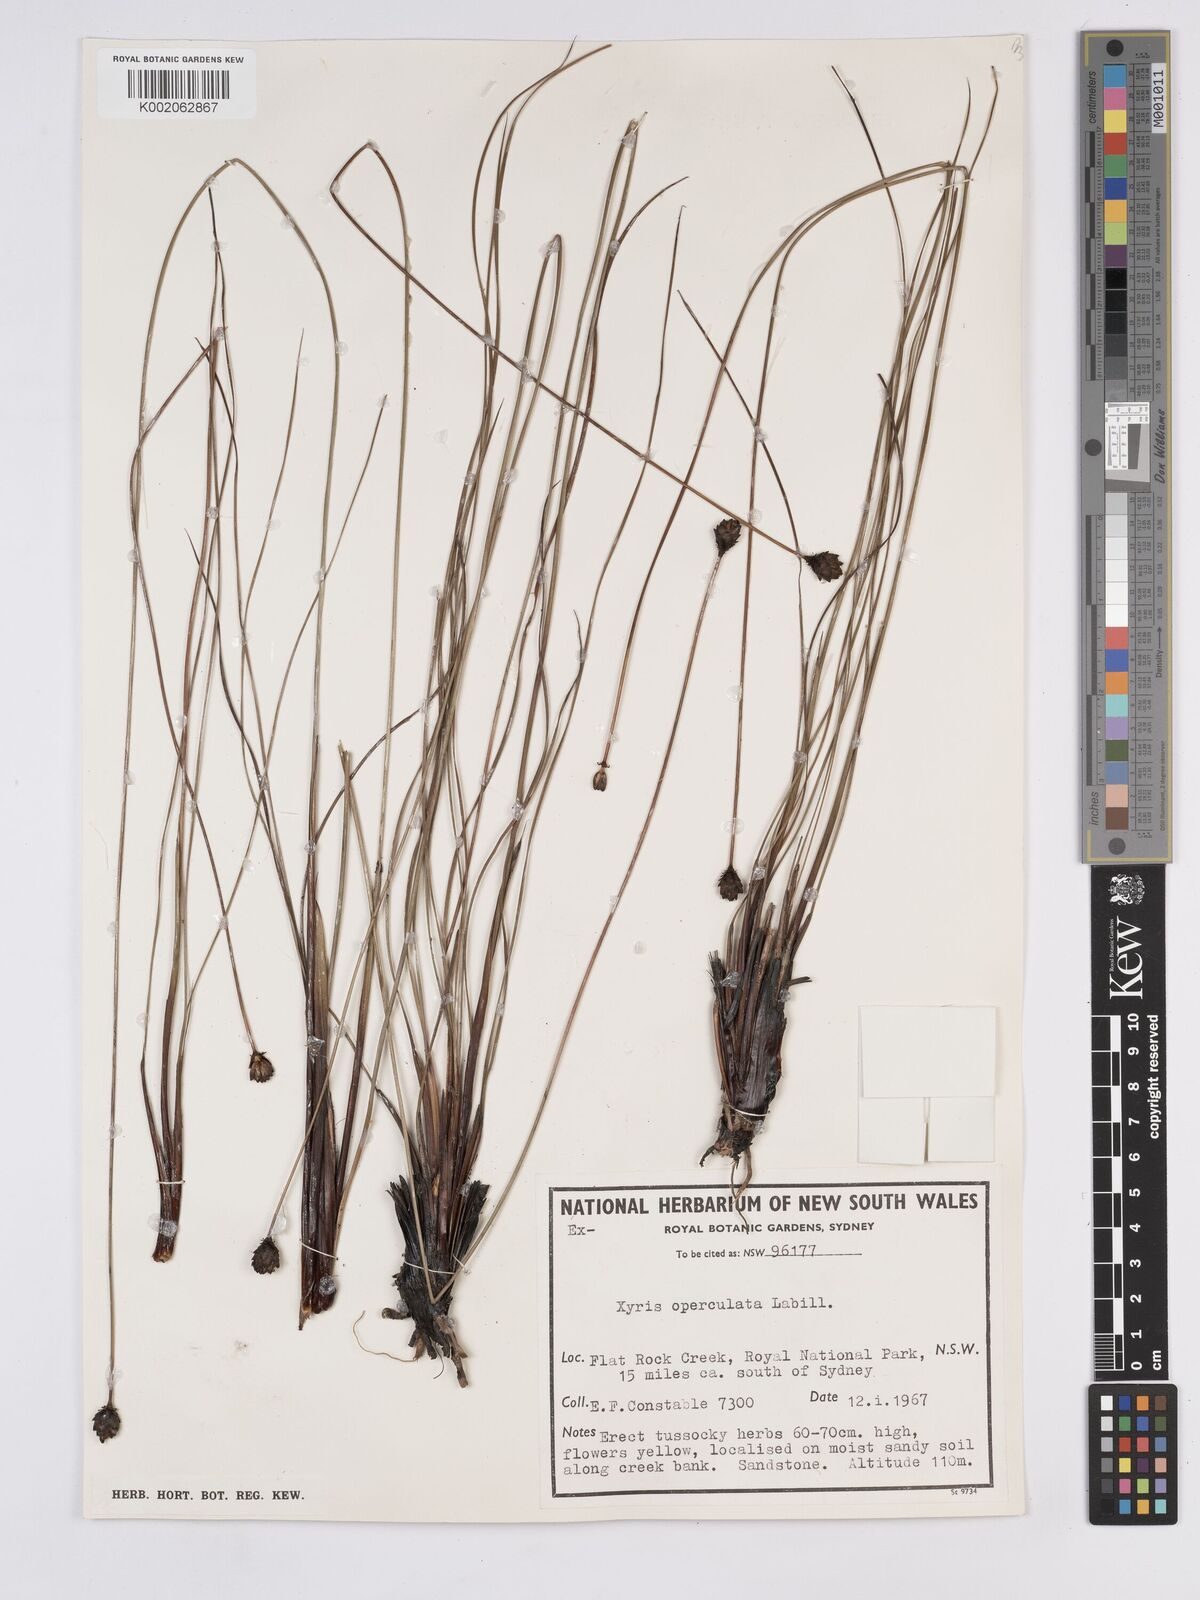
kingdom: Plantae
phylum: Tracheophyta
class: Liliopsida
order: Poales
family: Xyridaceae
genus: Xyris
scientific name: Xyris operculata
